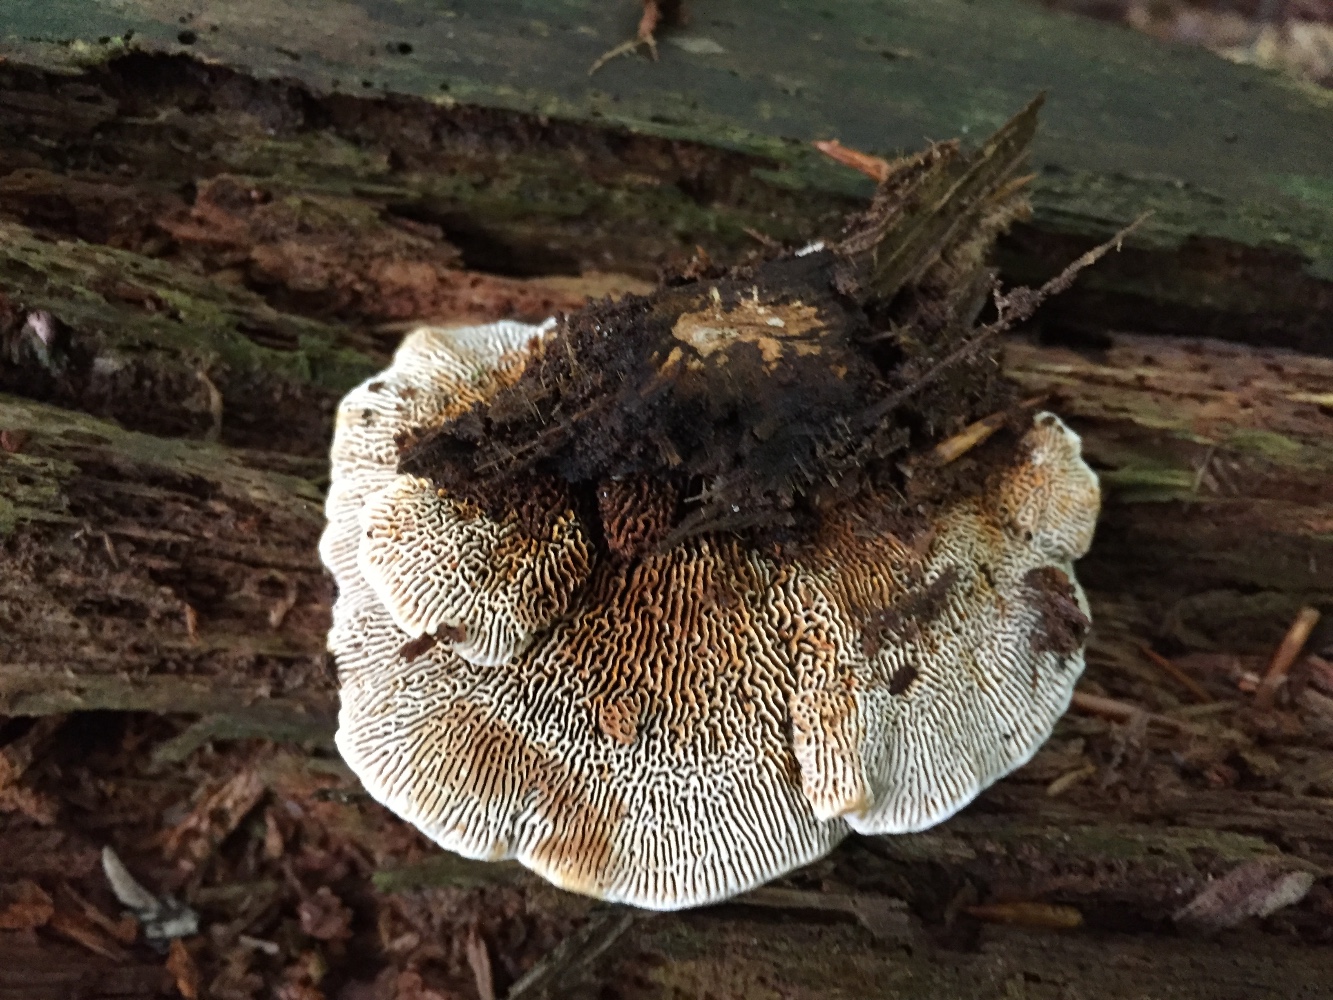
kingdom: Fungi
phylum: Basidiomycota
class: Agaricomycetes
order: Gloeophyllales
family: Gloeophyllaceae
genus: Gloeophyllum
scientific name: Gloeophyllum sepiarium
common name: fyrre-korkhat
